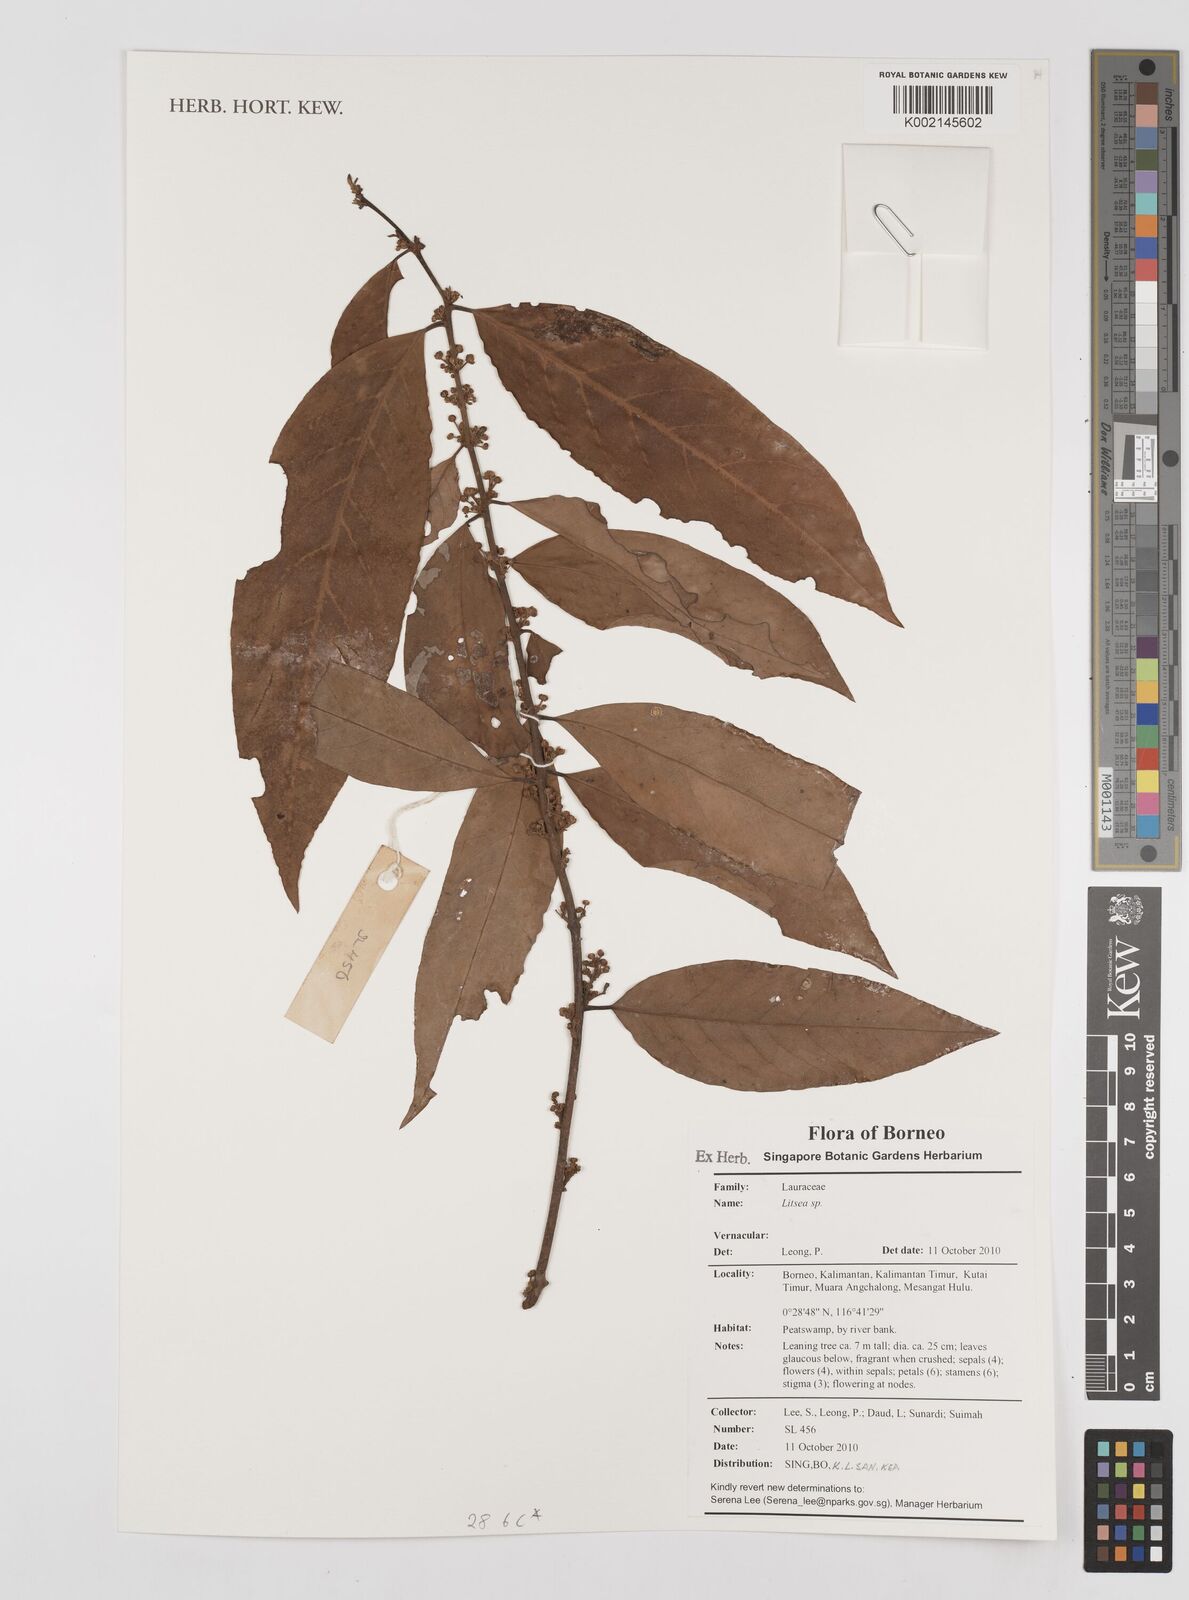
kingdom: Plantae
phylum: Tracheophyta
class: Magnoliopsida
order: Laurales
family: Lauraceae
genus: Litsea
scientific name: Litsea
